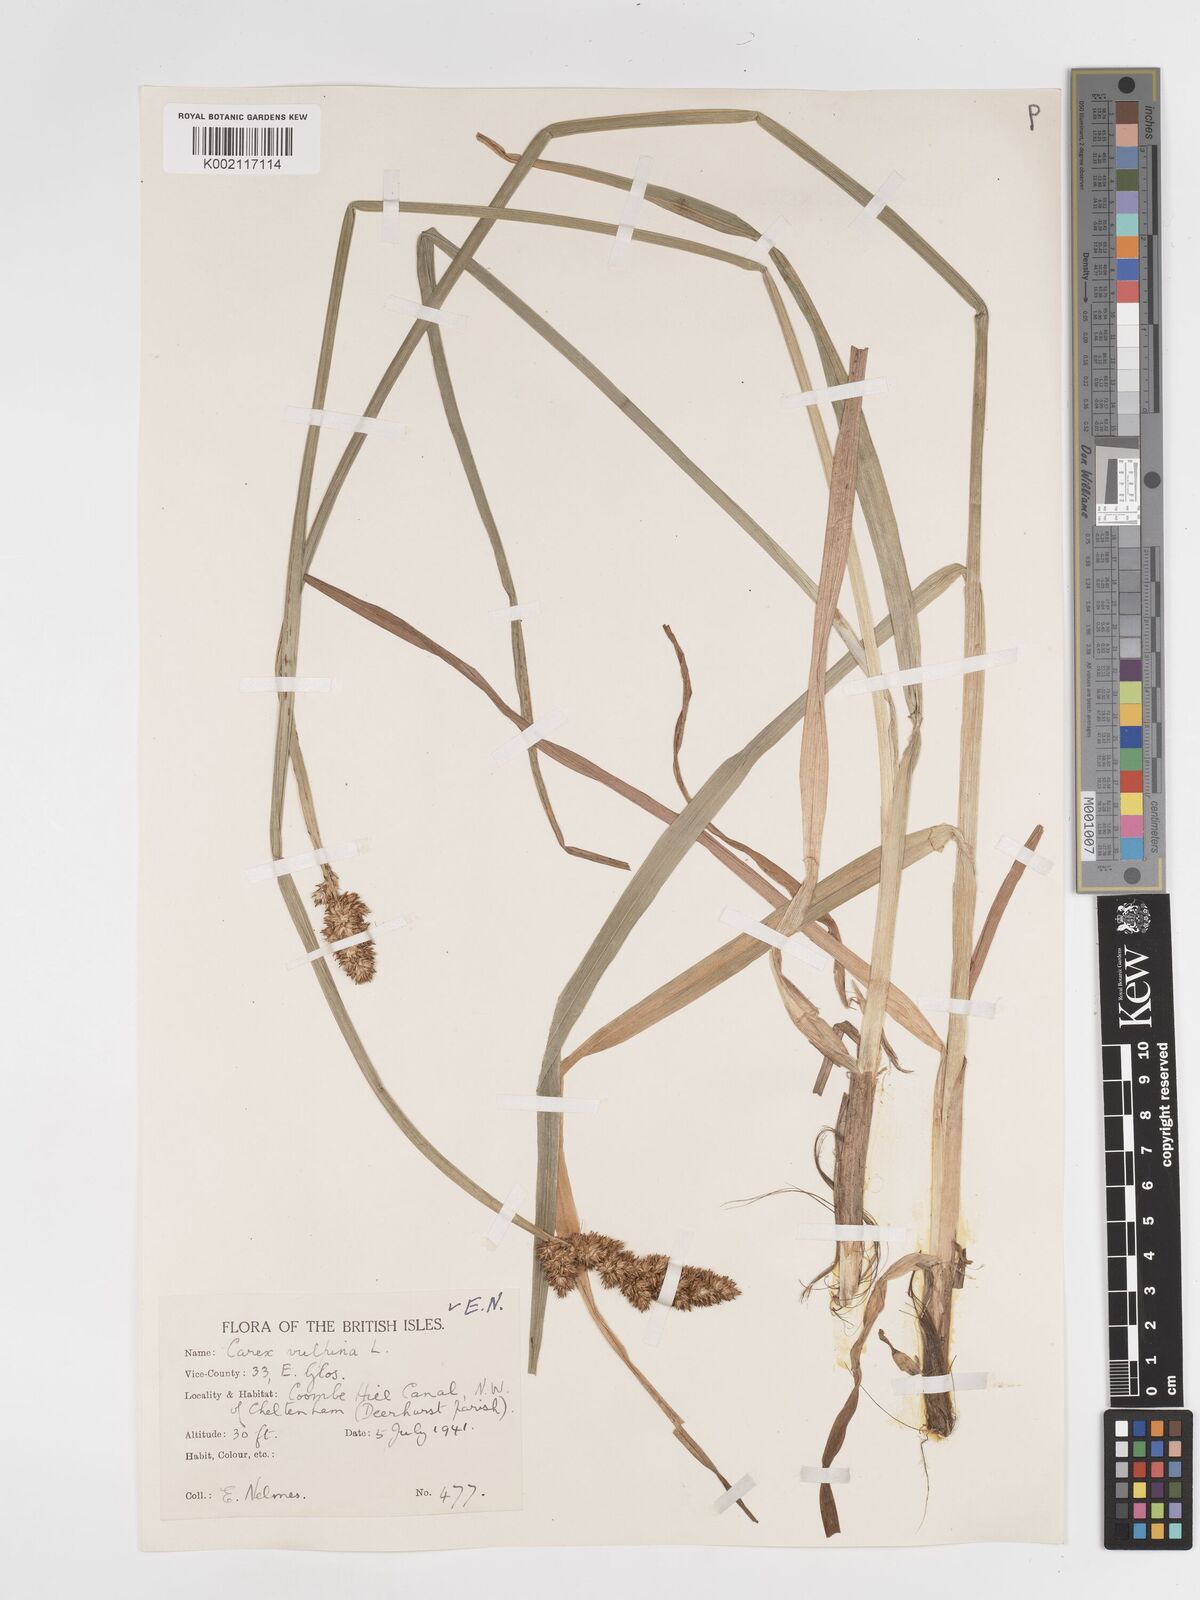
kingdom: Plantae
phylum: Tracheophyta
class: Liliopsida
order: Poales
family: Cyperaceae
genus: Carex
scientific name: Carex vulpina
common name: True fox-sedge
